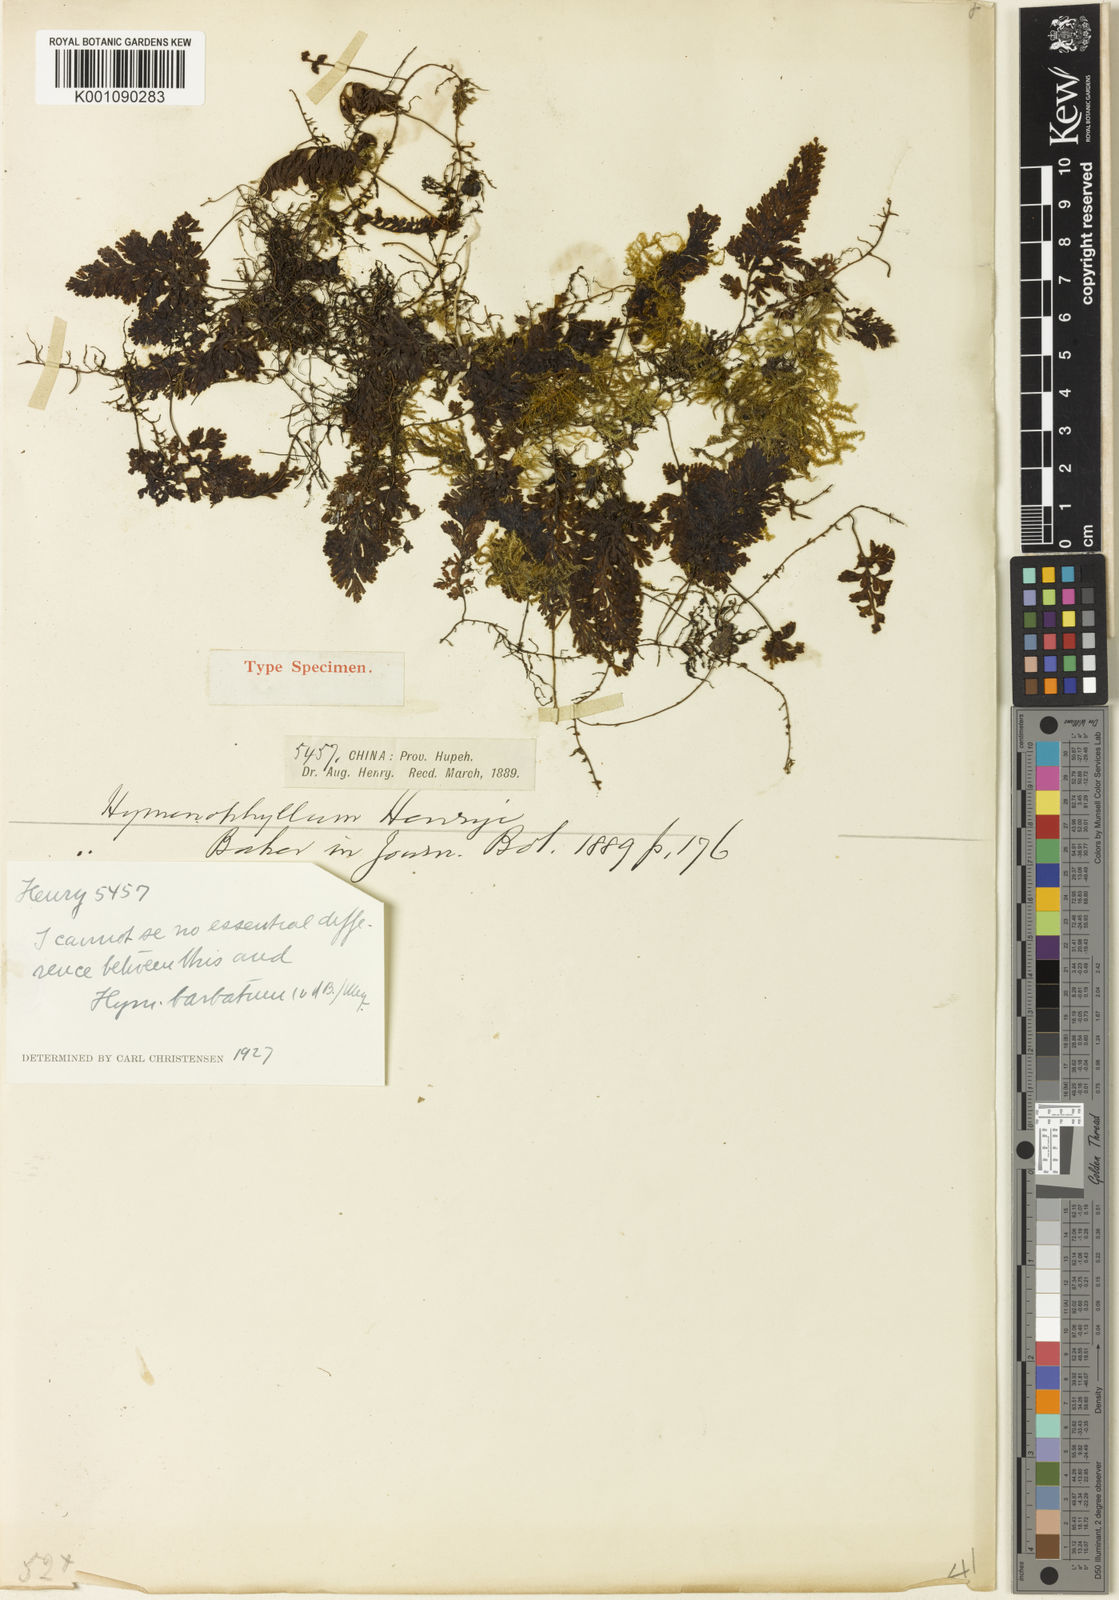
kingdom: Plantae
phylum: Tracheophyta
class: Polypodiopsida
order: Hymenophyllales
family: Hymenophyllaceae
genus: Hymenophyllum
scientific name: Hymenophyllum barbatum
